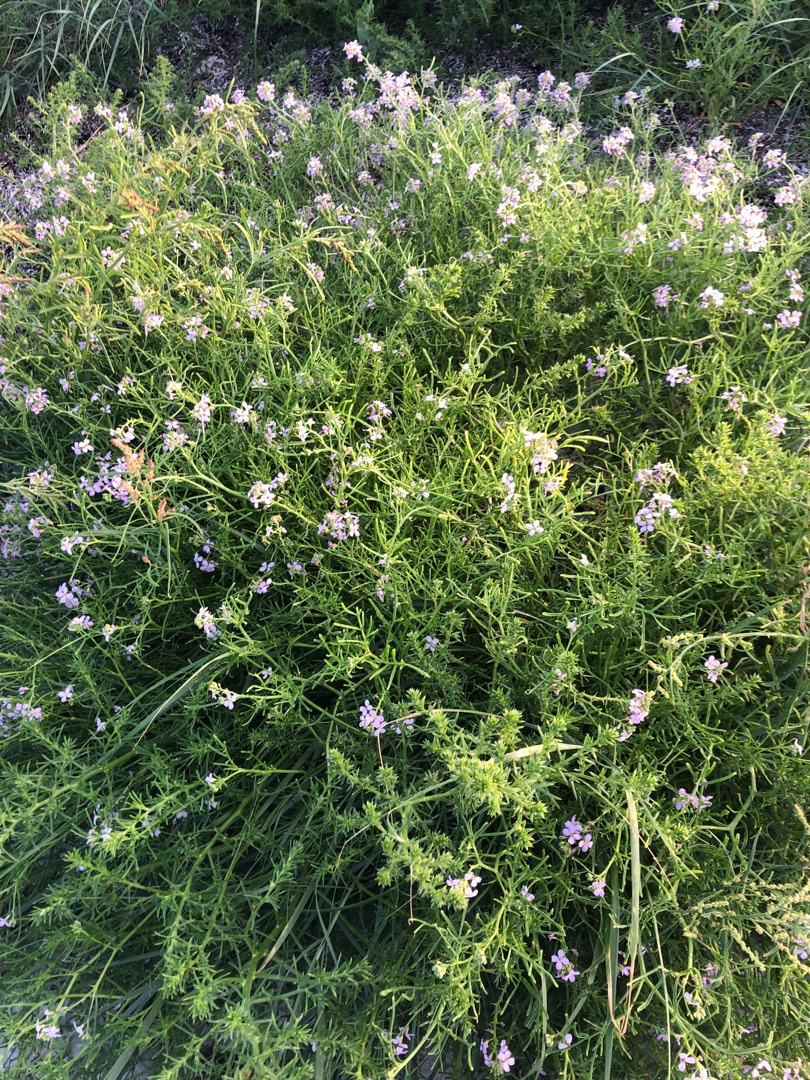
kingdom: Plantae
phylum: Tracheophyta
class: Magnoliopsida
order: Brassicales
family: Brassicaceae
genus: Cakile
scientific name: Cakile maritima
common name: Strandsennep
